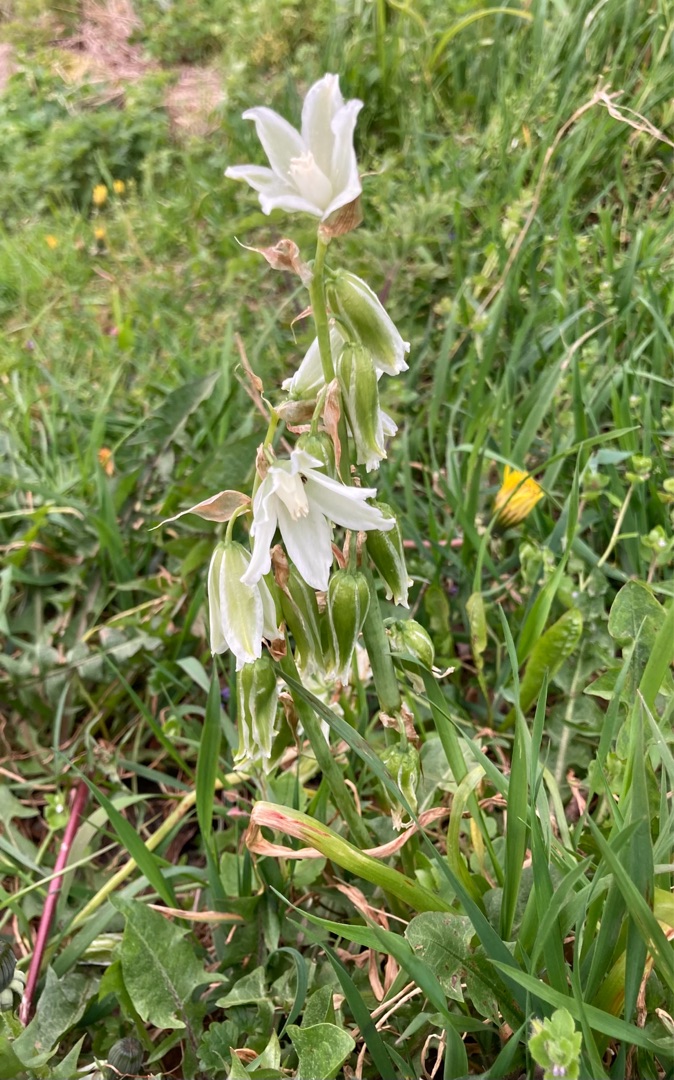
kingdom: Plantae
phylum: Tracheophyta
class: Liliopsida
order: Asparagales
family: Asparagaceae
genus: Ornithogalum
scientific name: Ornithogalum nutans
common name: Nikkende fuglemælk
